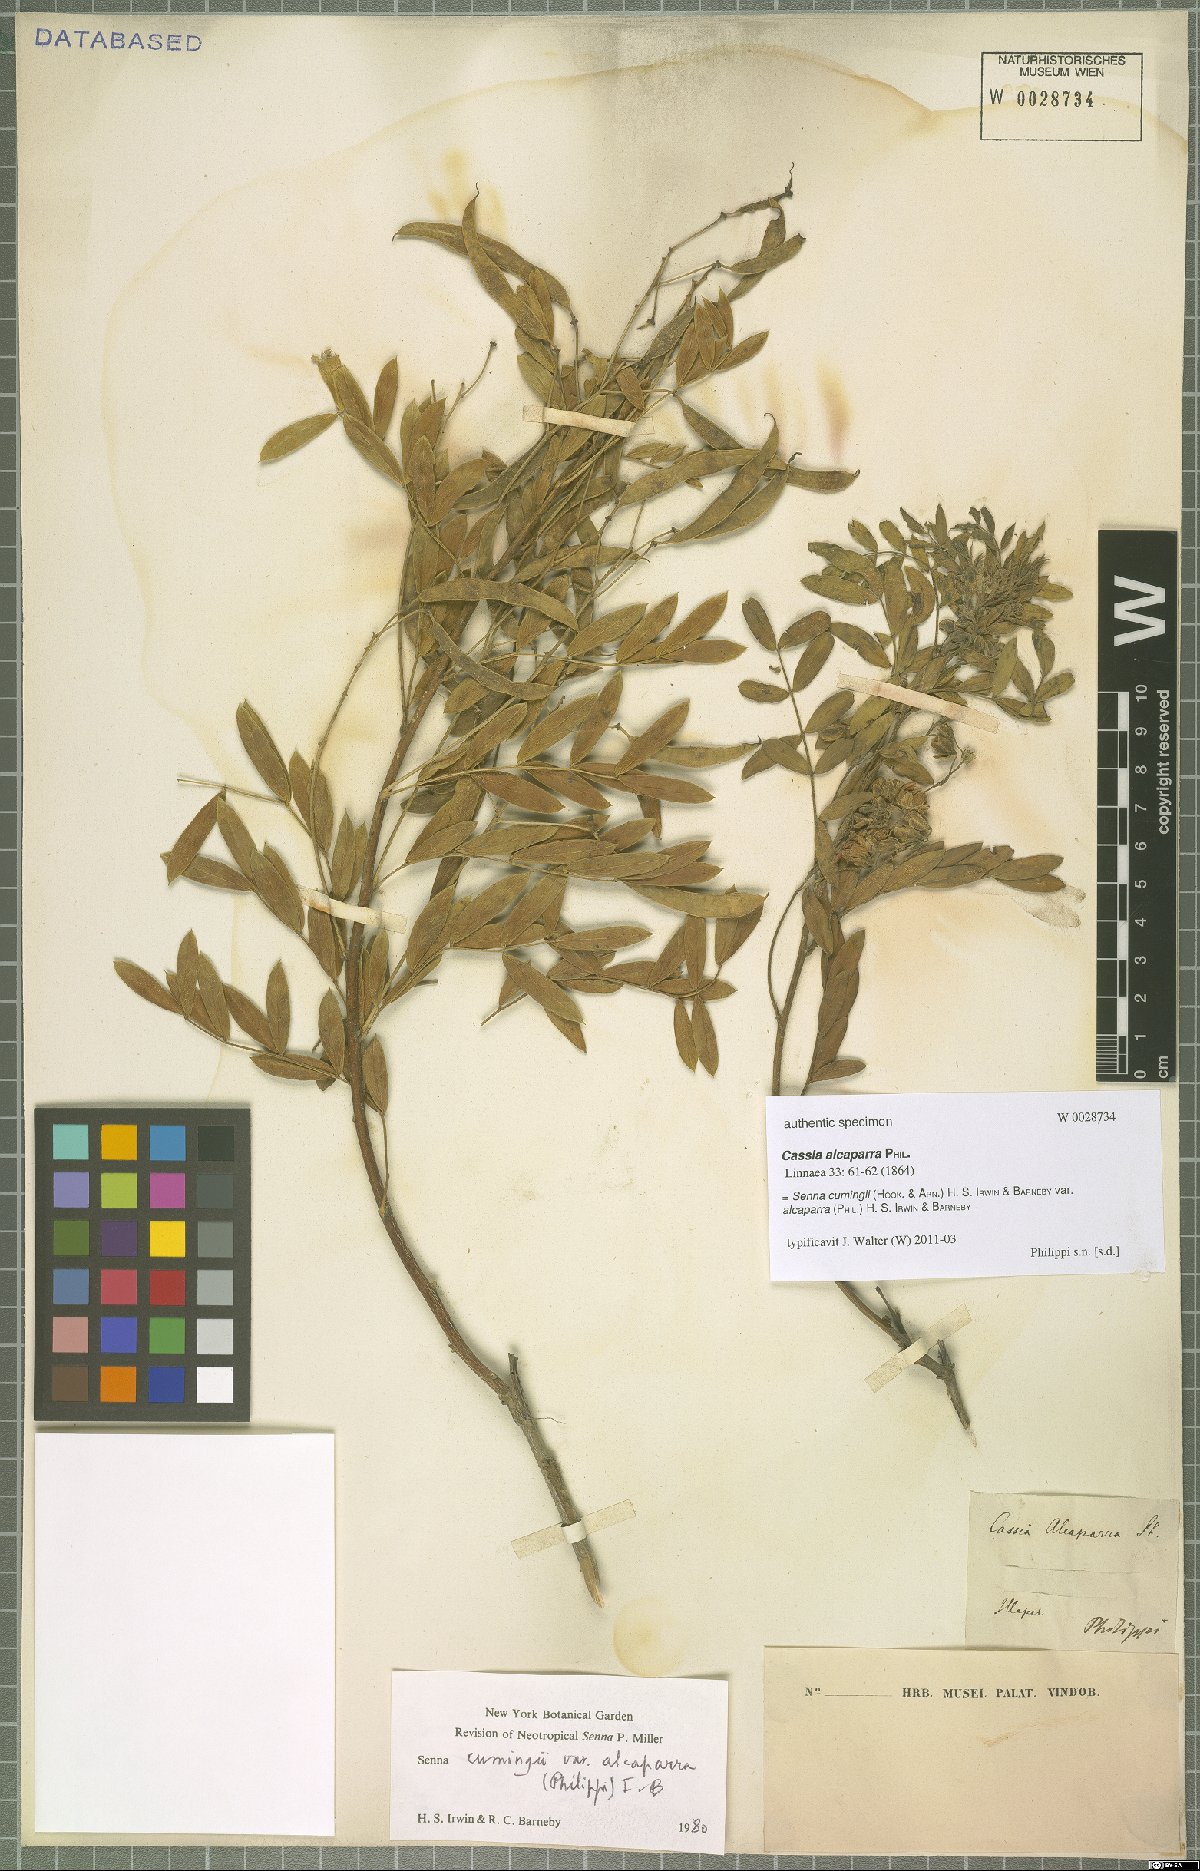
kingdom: Plantae
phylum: Tracheophyta
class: Magnoliopsida
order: Fabales
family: Fabaceae
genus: Senna
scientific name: Senna cumingii
